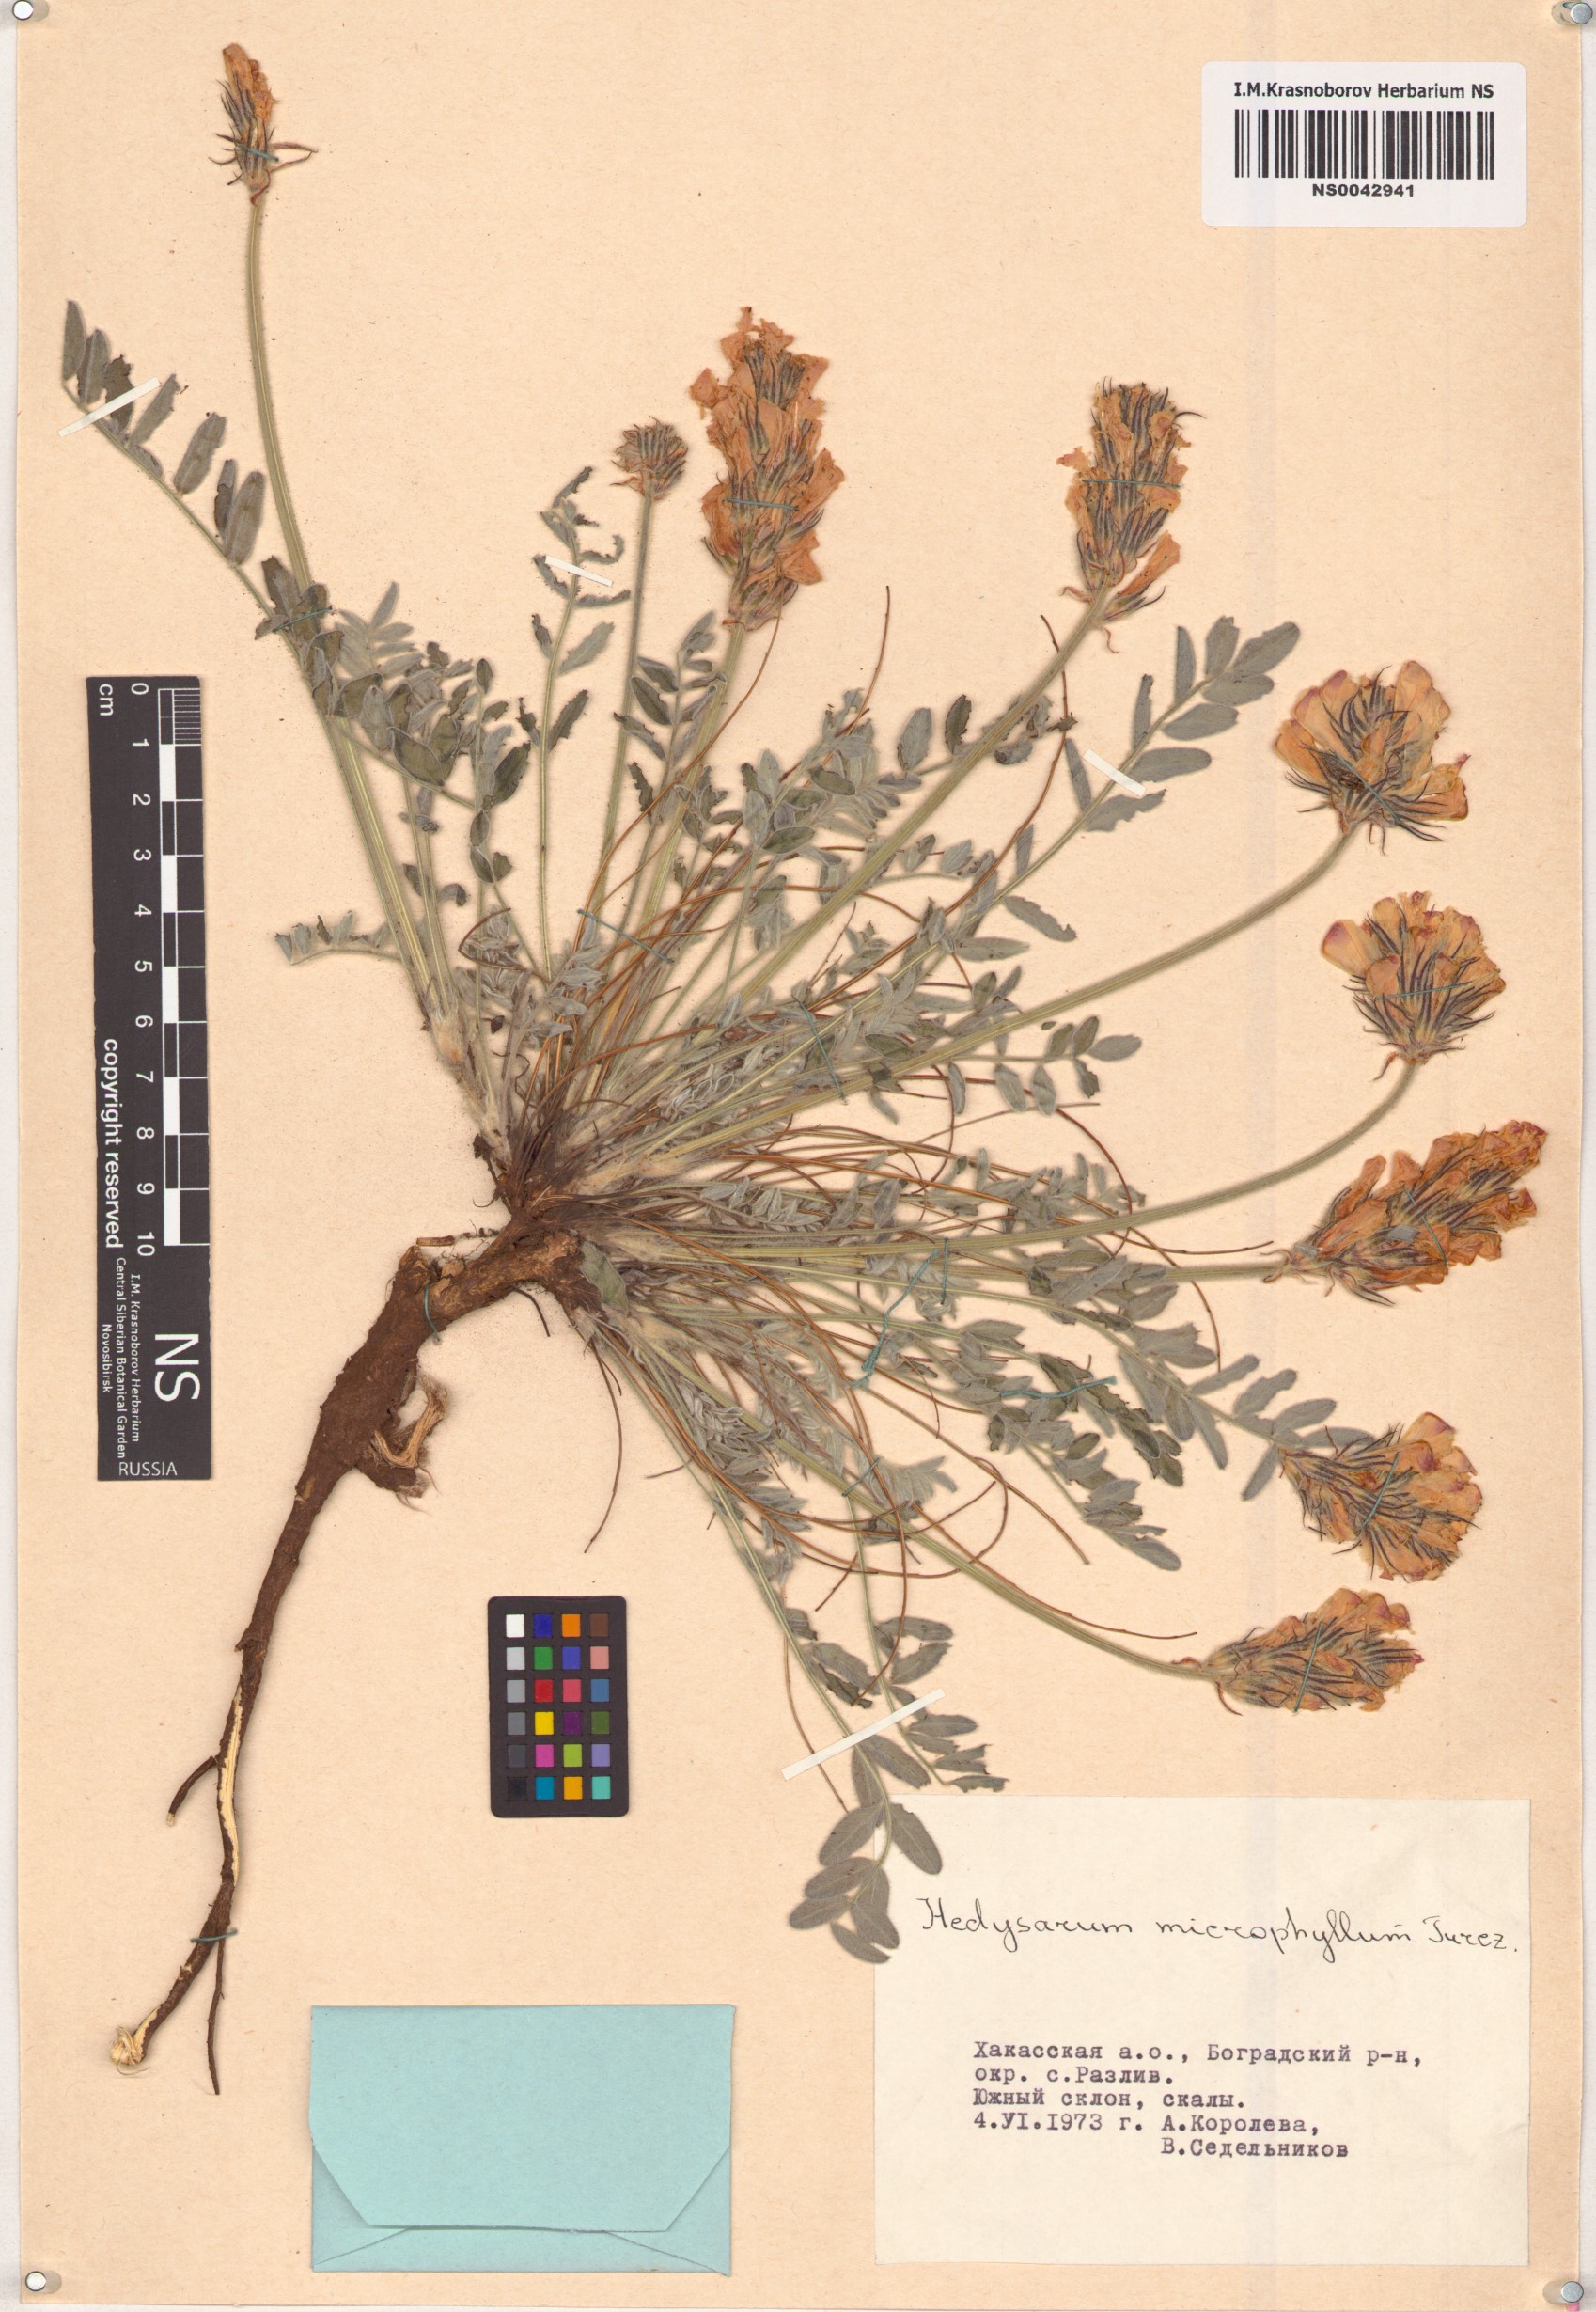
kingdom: Plantae
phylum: Tracheophyta
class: Magnoliopsida
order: Fabales
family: Fabaceae
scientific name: Fabaceae
